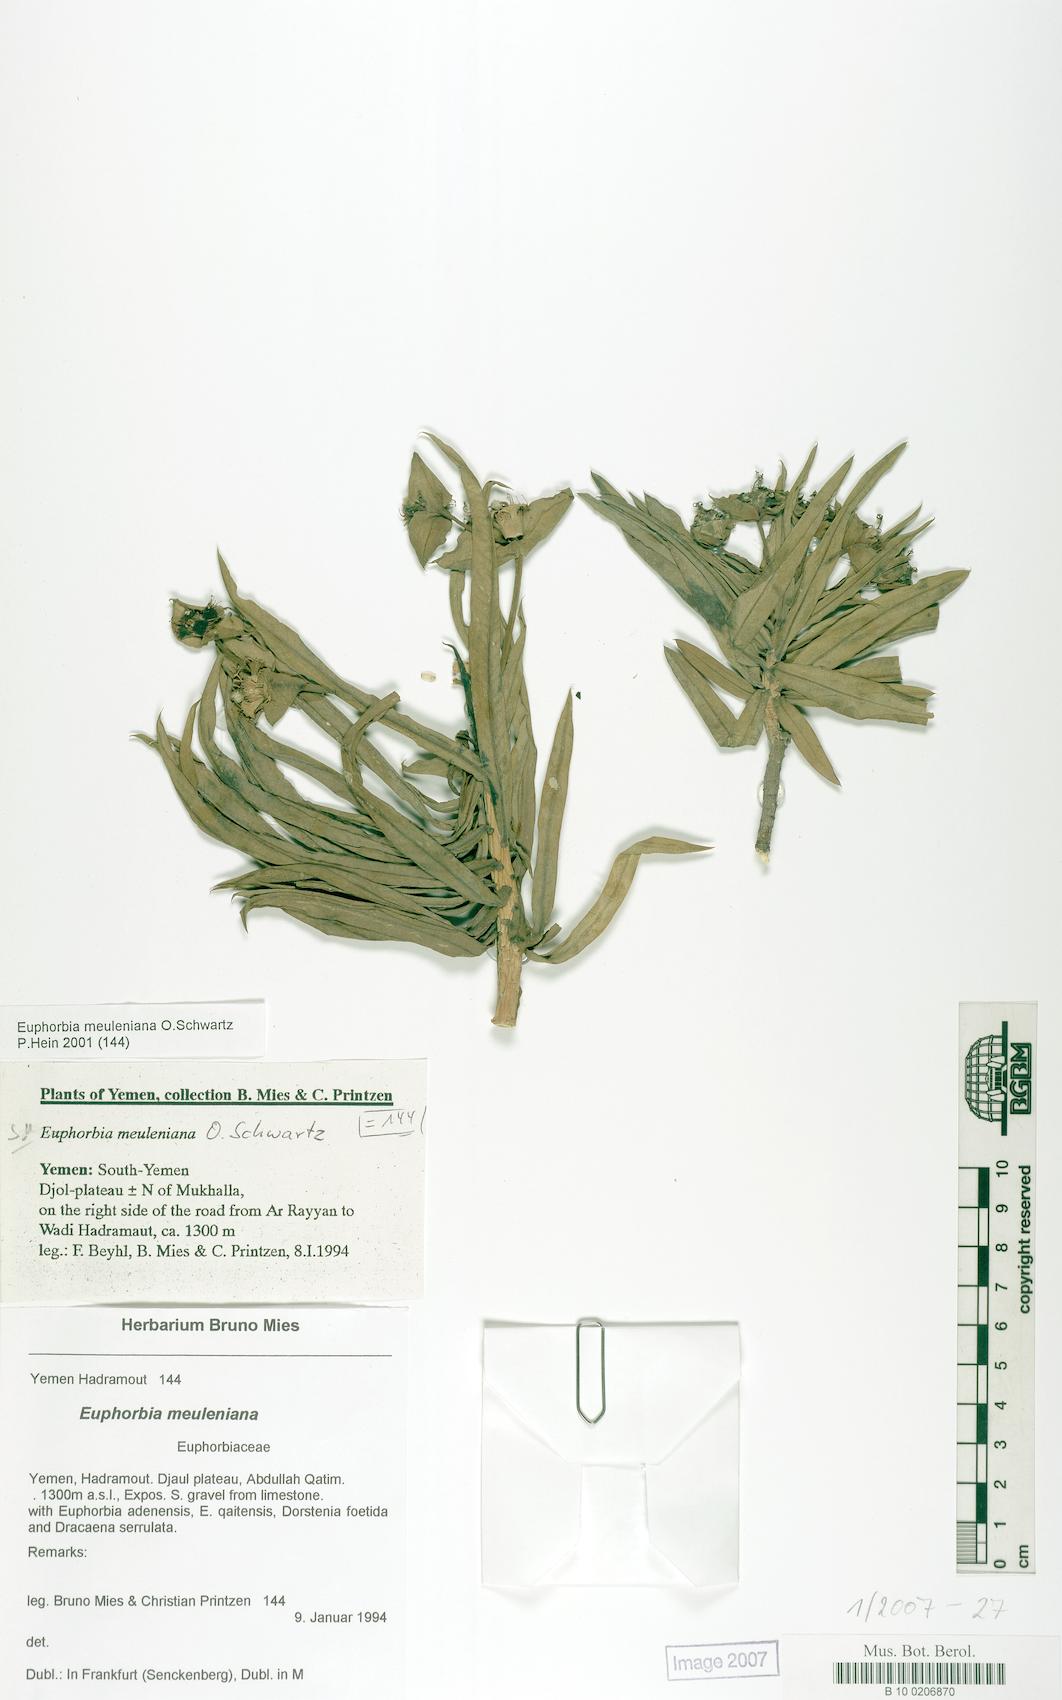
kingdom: Plantae
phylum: Tracheophyta
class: Magnoliopsida
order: Malpighiales
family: Euphorbiaceae
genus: Euphorbia
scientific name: Euphorbia meuleniana
